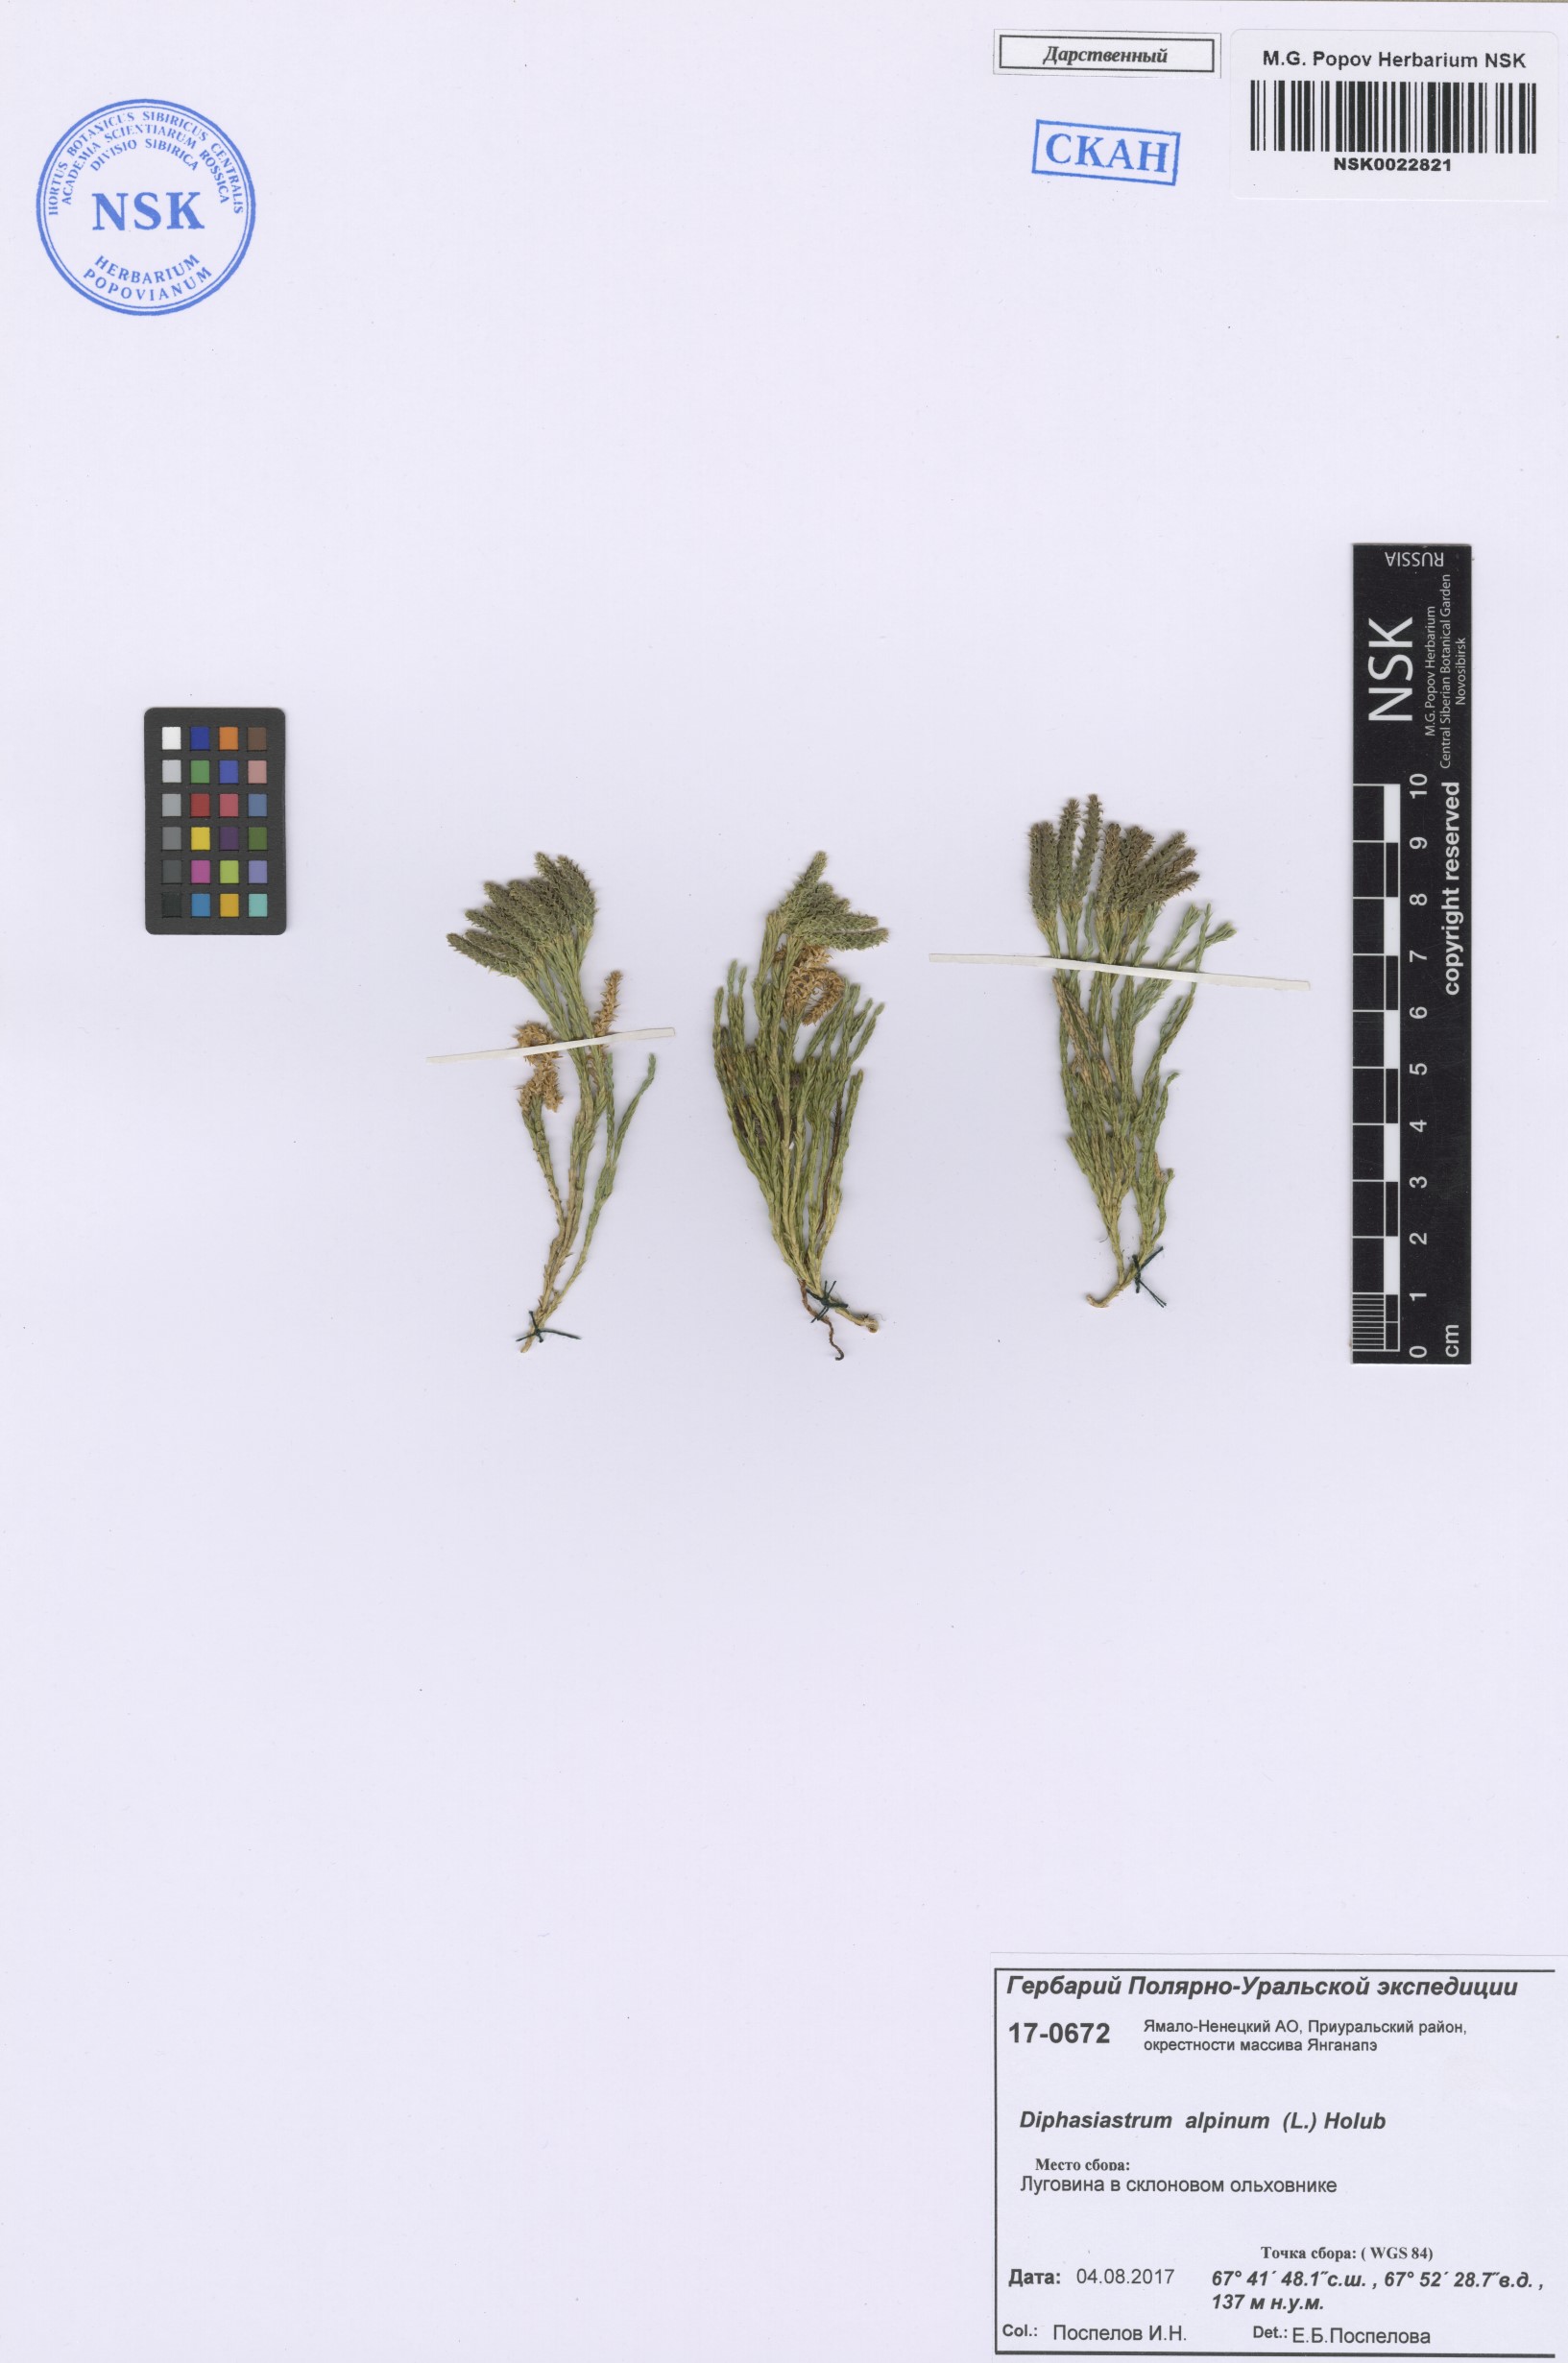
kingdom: Plantae
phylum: Tracheophyta
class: Lycopodiopsida
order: Lycopodiales
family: Lycopodiaceae
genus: Diphasiastrum
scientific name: Diphasiastrum alpinum
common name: Alpine clubmoss
